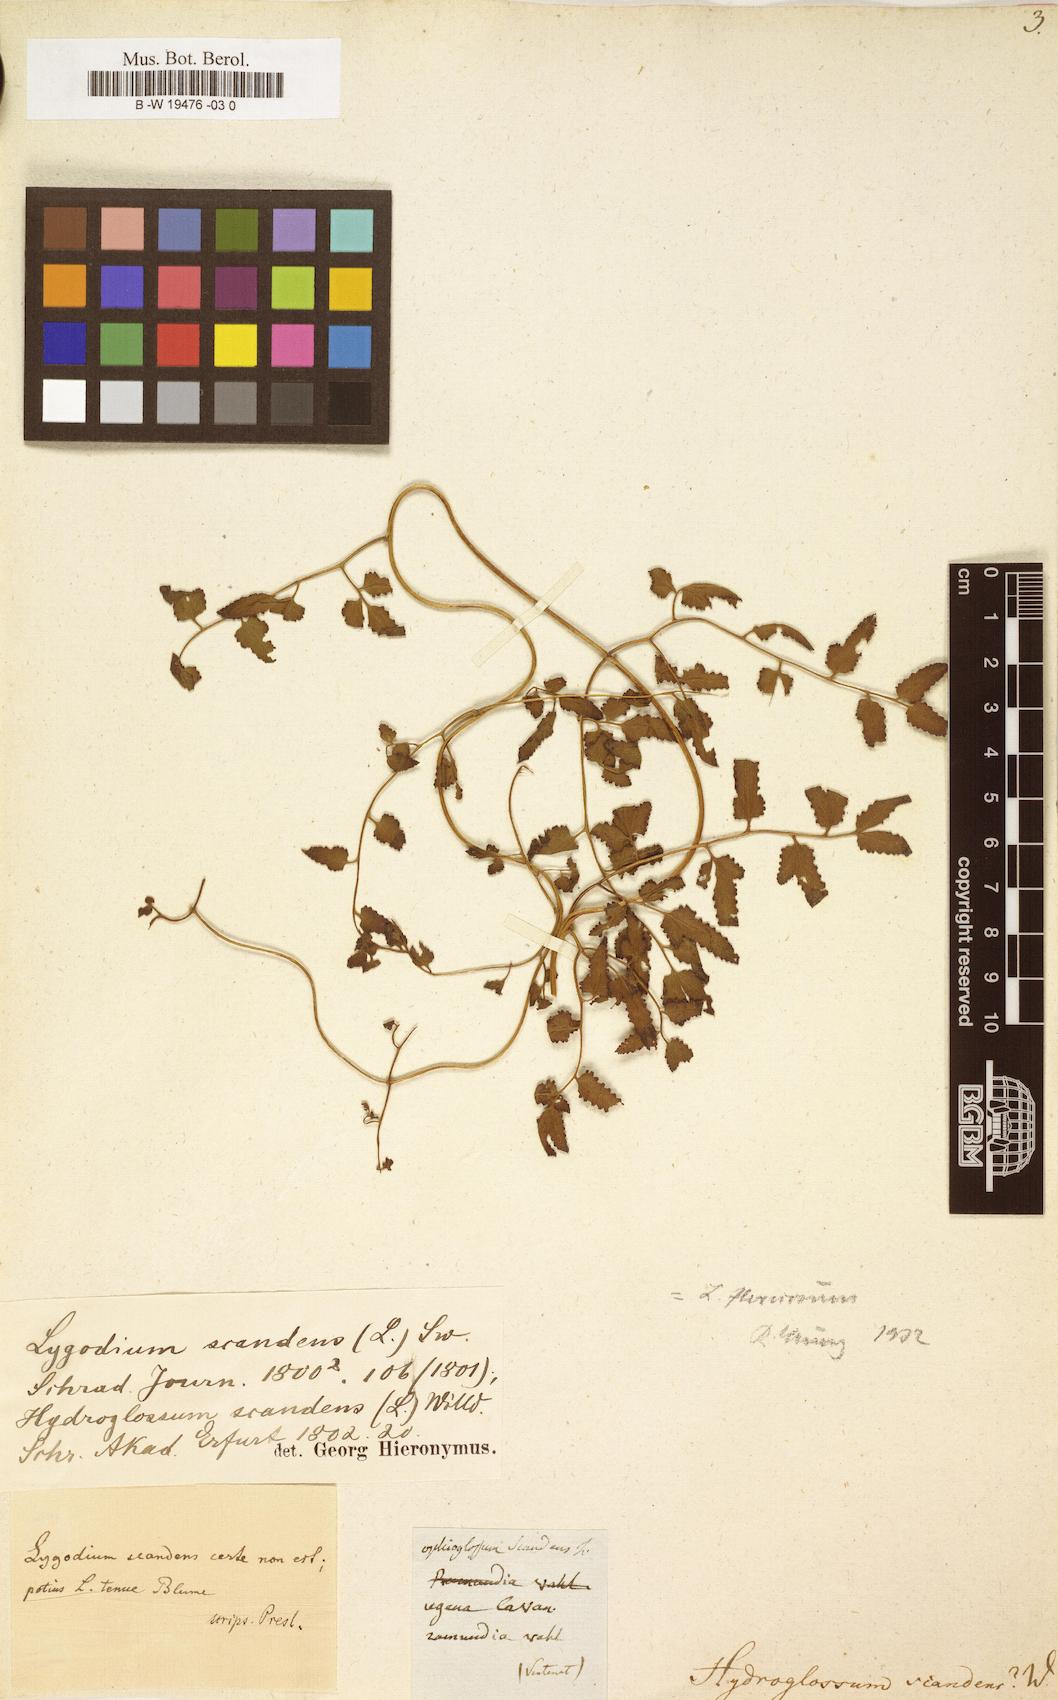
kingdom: Plantae
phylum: Tracheophyta
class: Polypodiopsida
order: Schizaeales
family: Lygodiaceae
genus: Lygodium
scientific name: Lygodium
